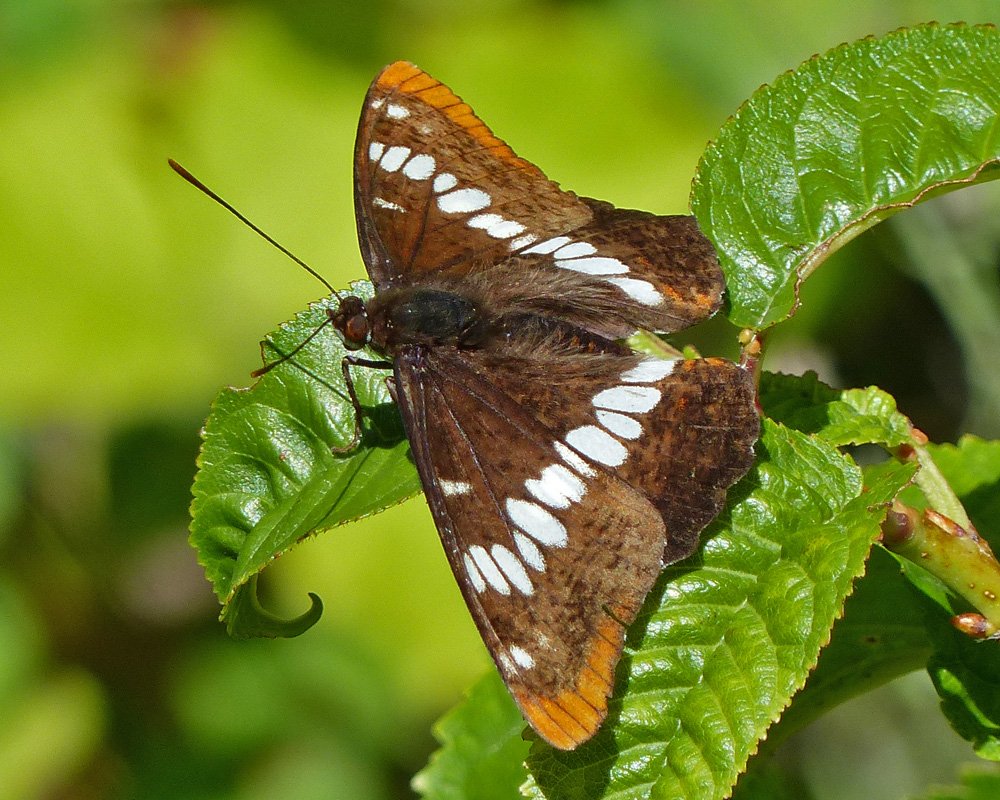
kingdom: Animalia
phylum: Arthropoda
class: Insecta
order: Lepidoptera
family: Nymphalidae
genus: Limenitis
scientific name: Limenitis lorquini
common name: Lorquin's Admiral
